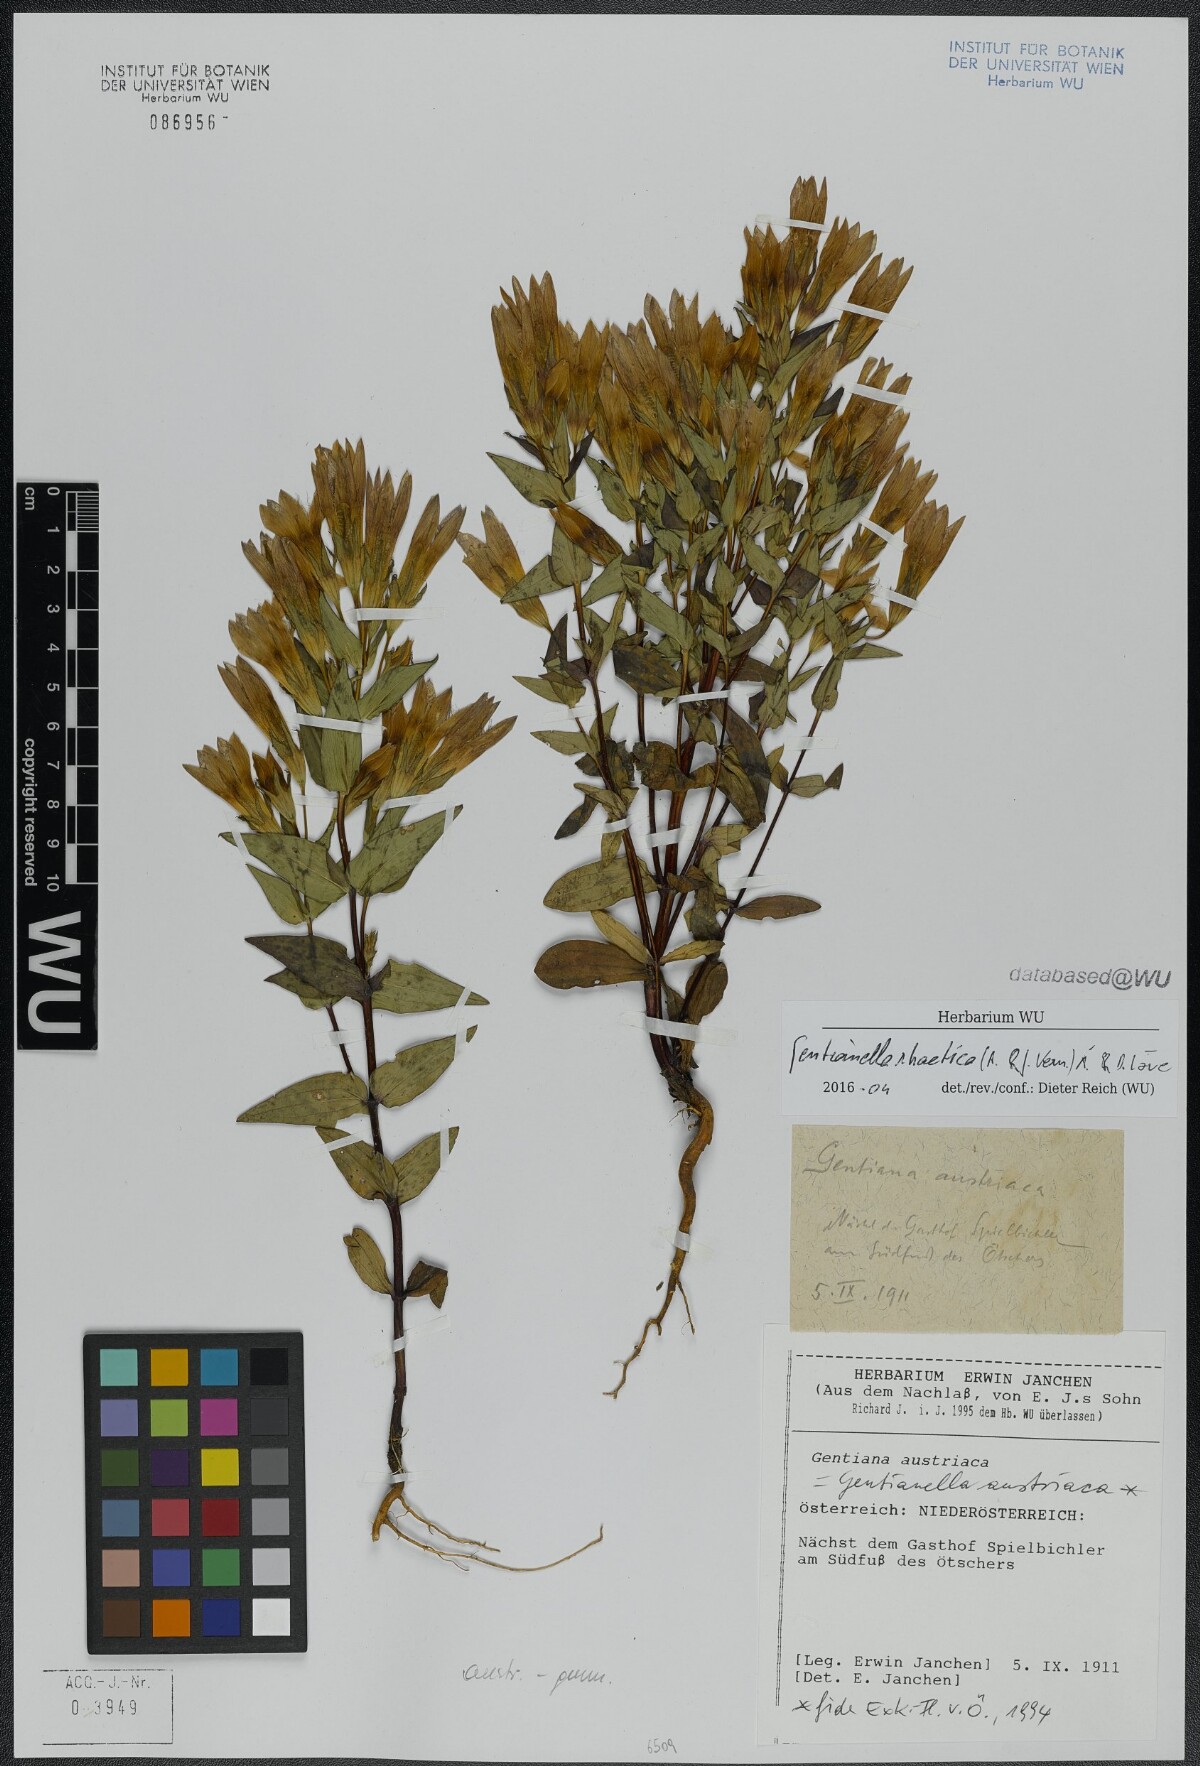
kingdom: Plantae
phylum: Tracheophyta
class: Magnoliopsida
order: Gentianales
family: Gentianaceae
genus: Gentianella
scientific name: Gentianella rhaetica
